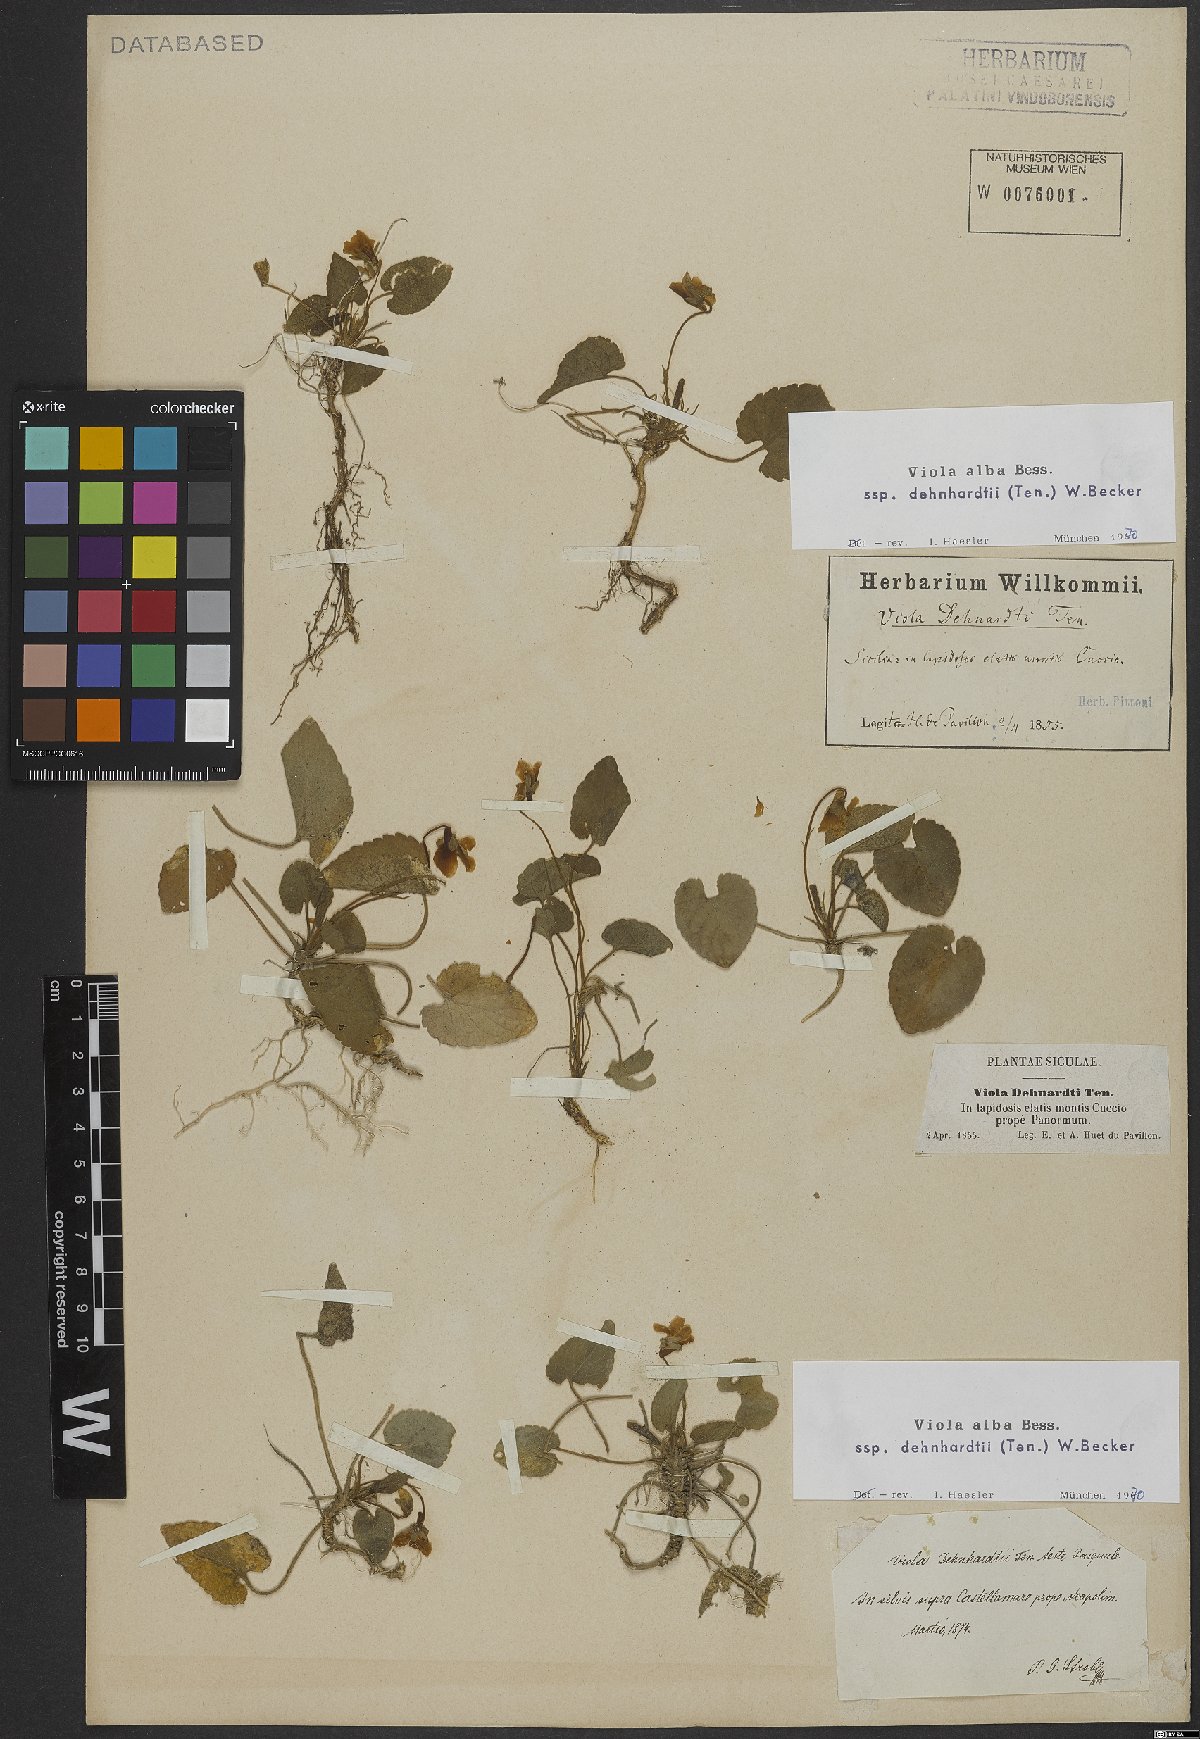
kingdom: Plantae
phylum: Tracheophyta
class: Magnoliopsida
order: Malpighiales
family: Violaceae
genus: Viola
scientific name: Viola alba
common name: White violet
